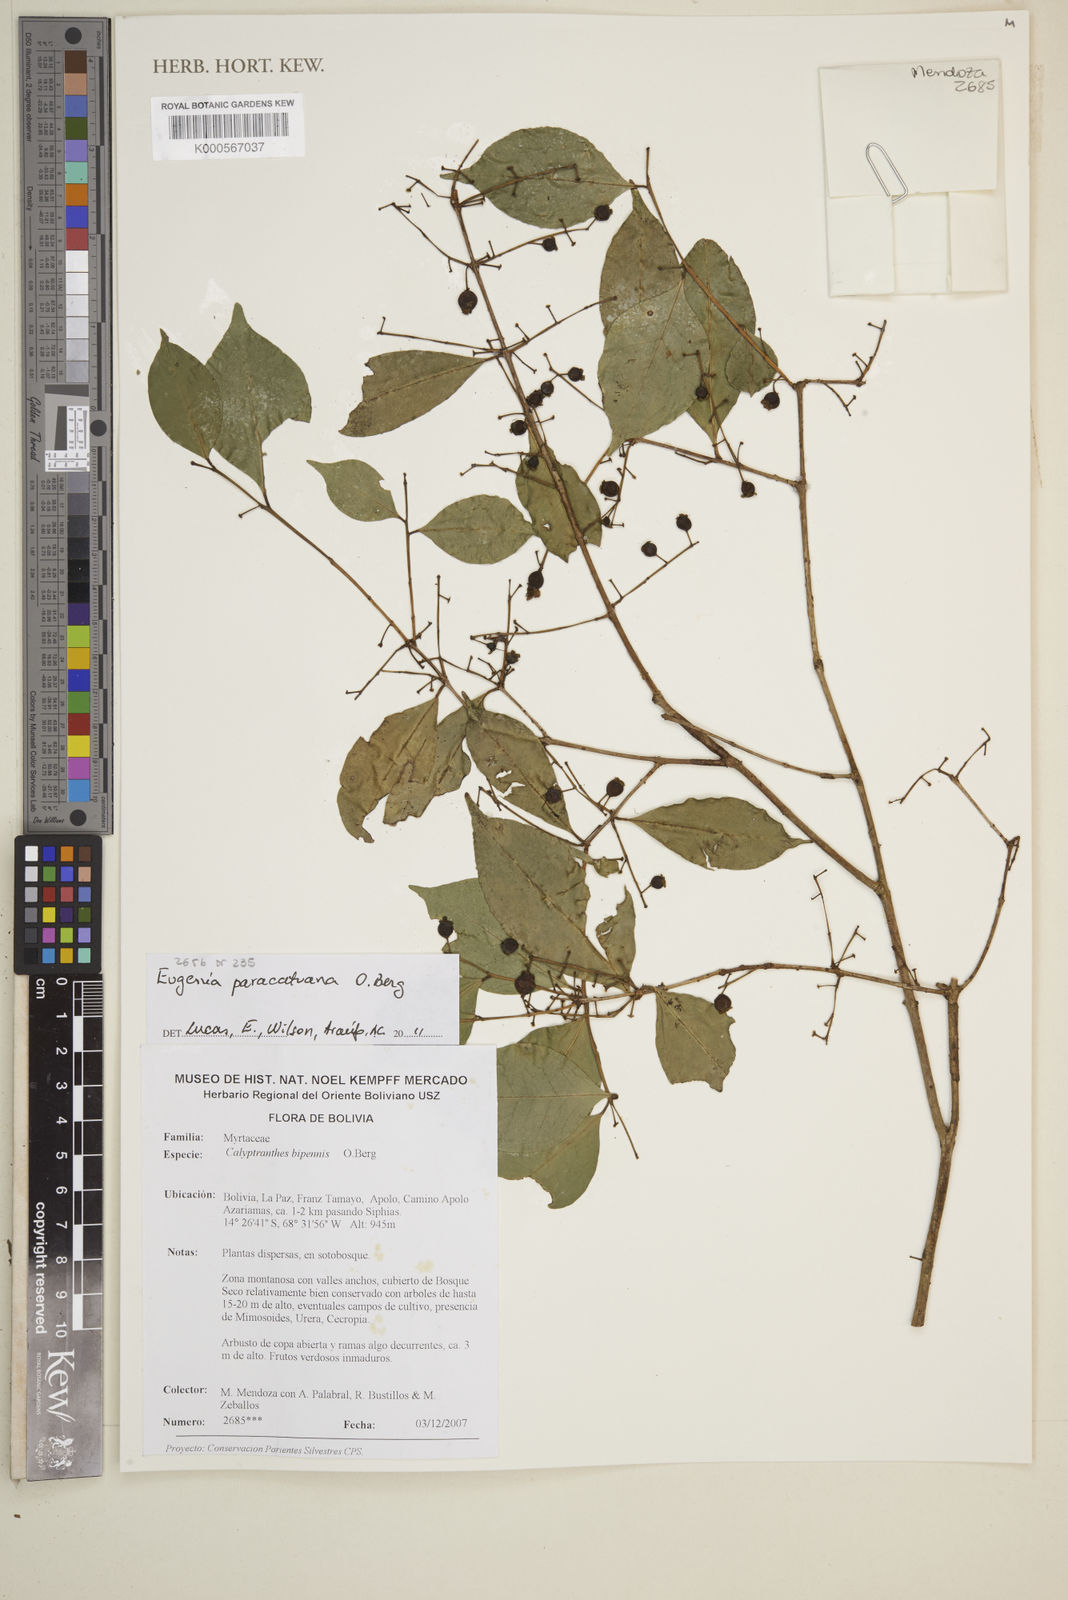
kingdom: Plantae
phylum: Tracheophyta
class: Magnoliopsida
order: Myrtales
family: Myrtaceae
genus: Eugenia
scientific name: Eugenia moraviana
